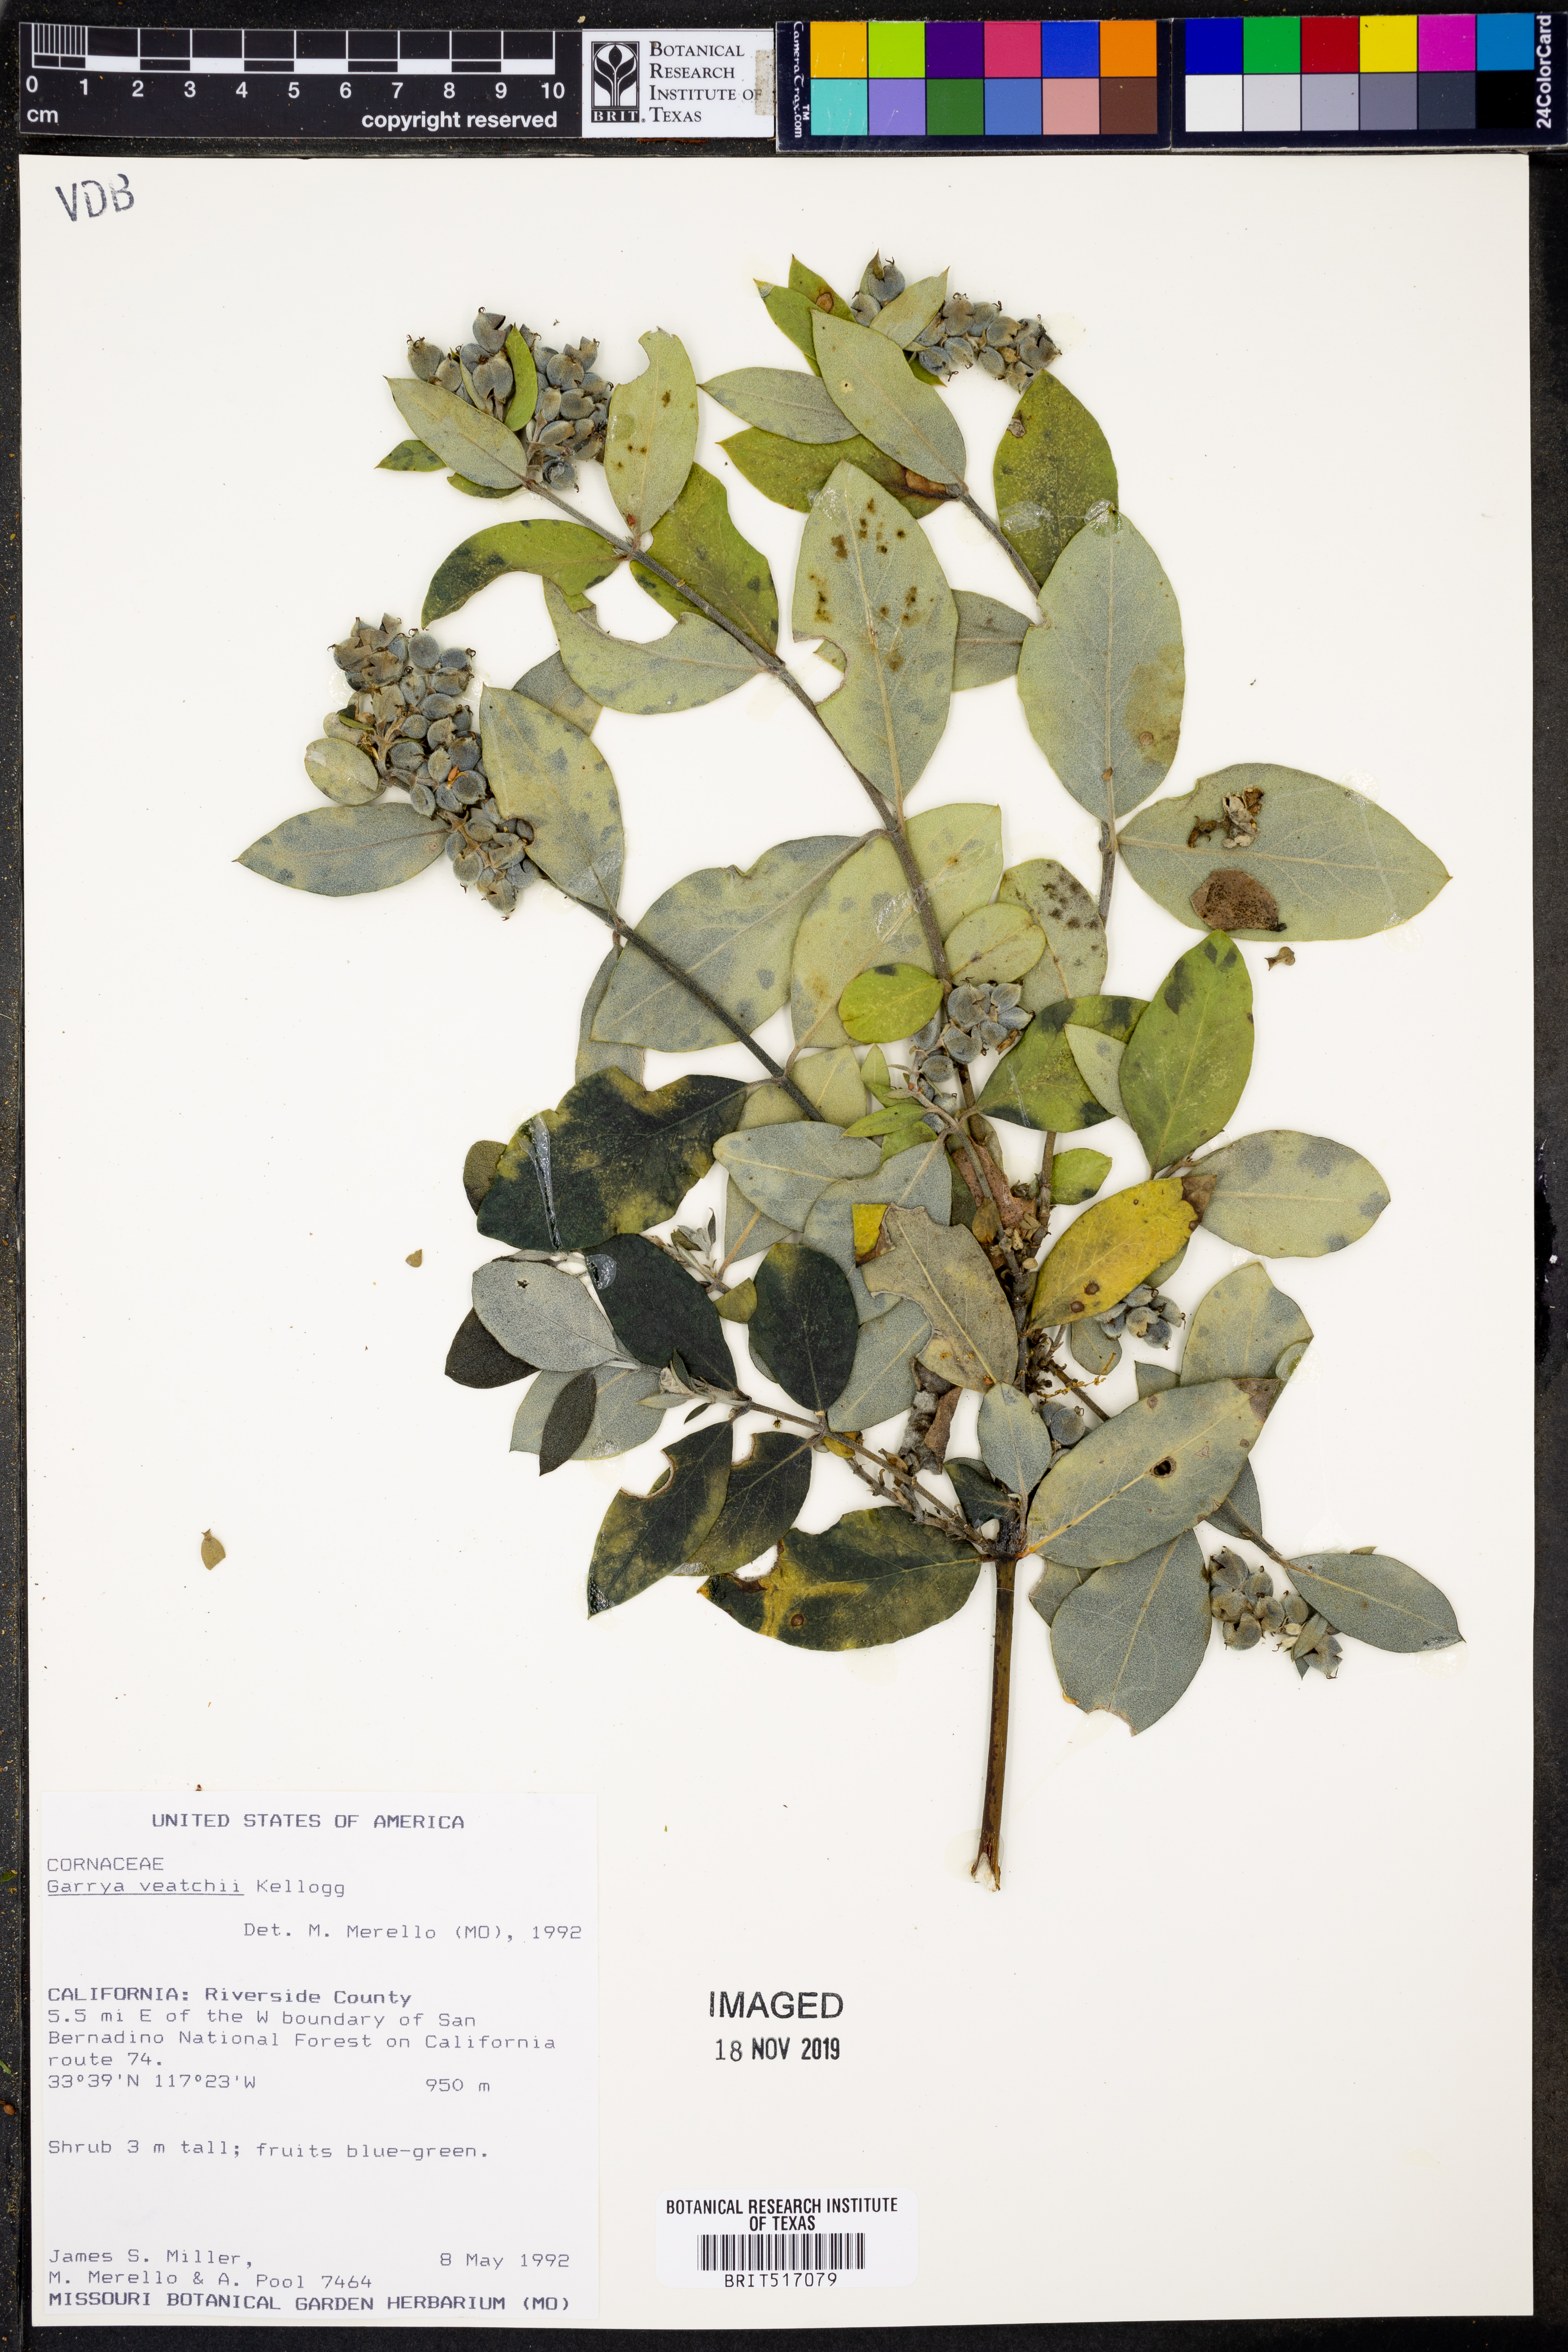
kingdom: Plantae
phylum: Tracheophyta
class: Magnoliopsida
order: Garryales
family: Garryaceae
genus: Garrya
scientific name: Garrya veatchii
